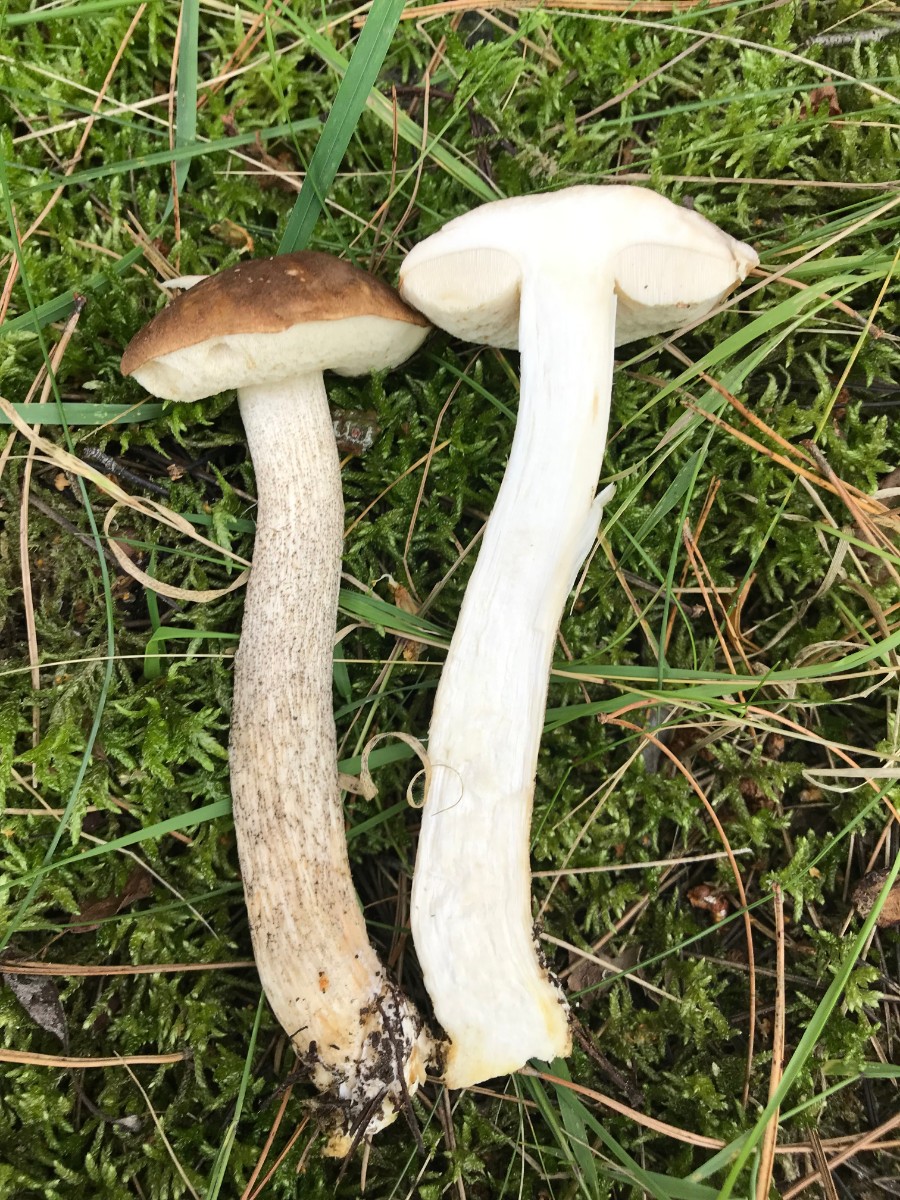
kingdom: Fungi
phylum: Basidiomycota
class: Agaricomycetes
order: Boletales
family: Boletaceae
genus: Leccinum
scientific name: Leccinum scabrum
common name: brun skælrørhat
